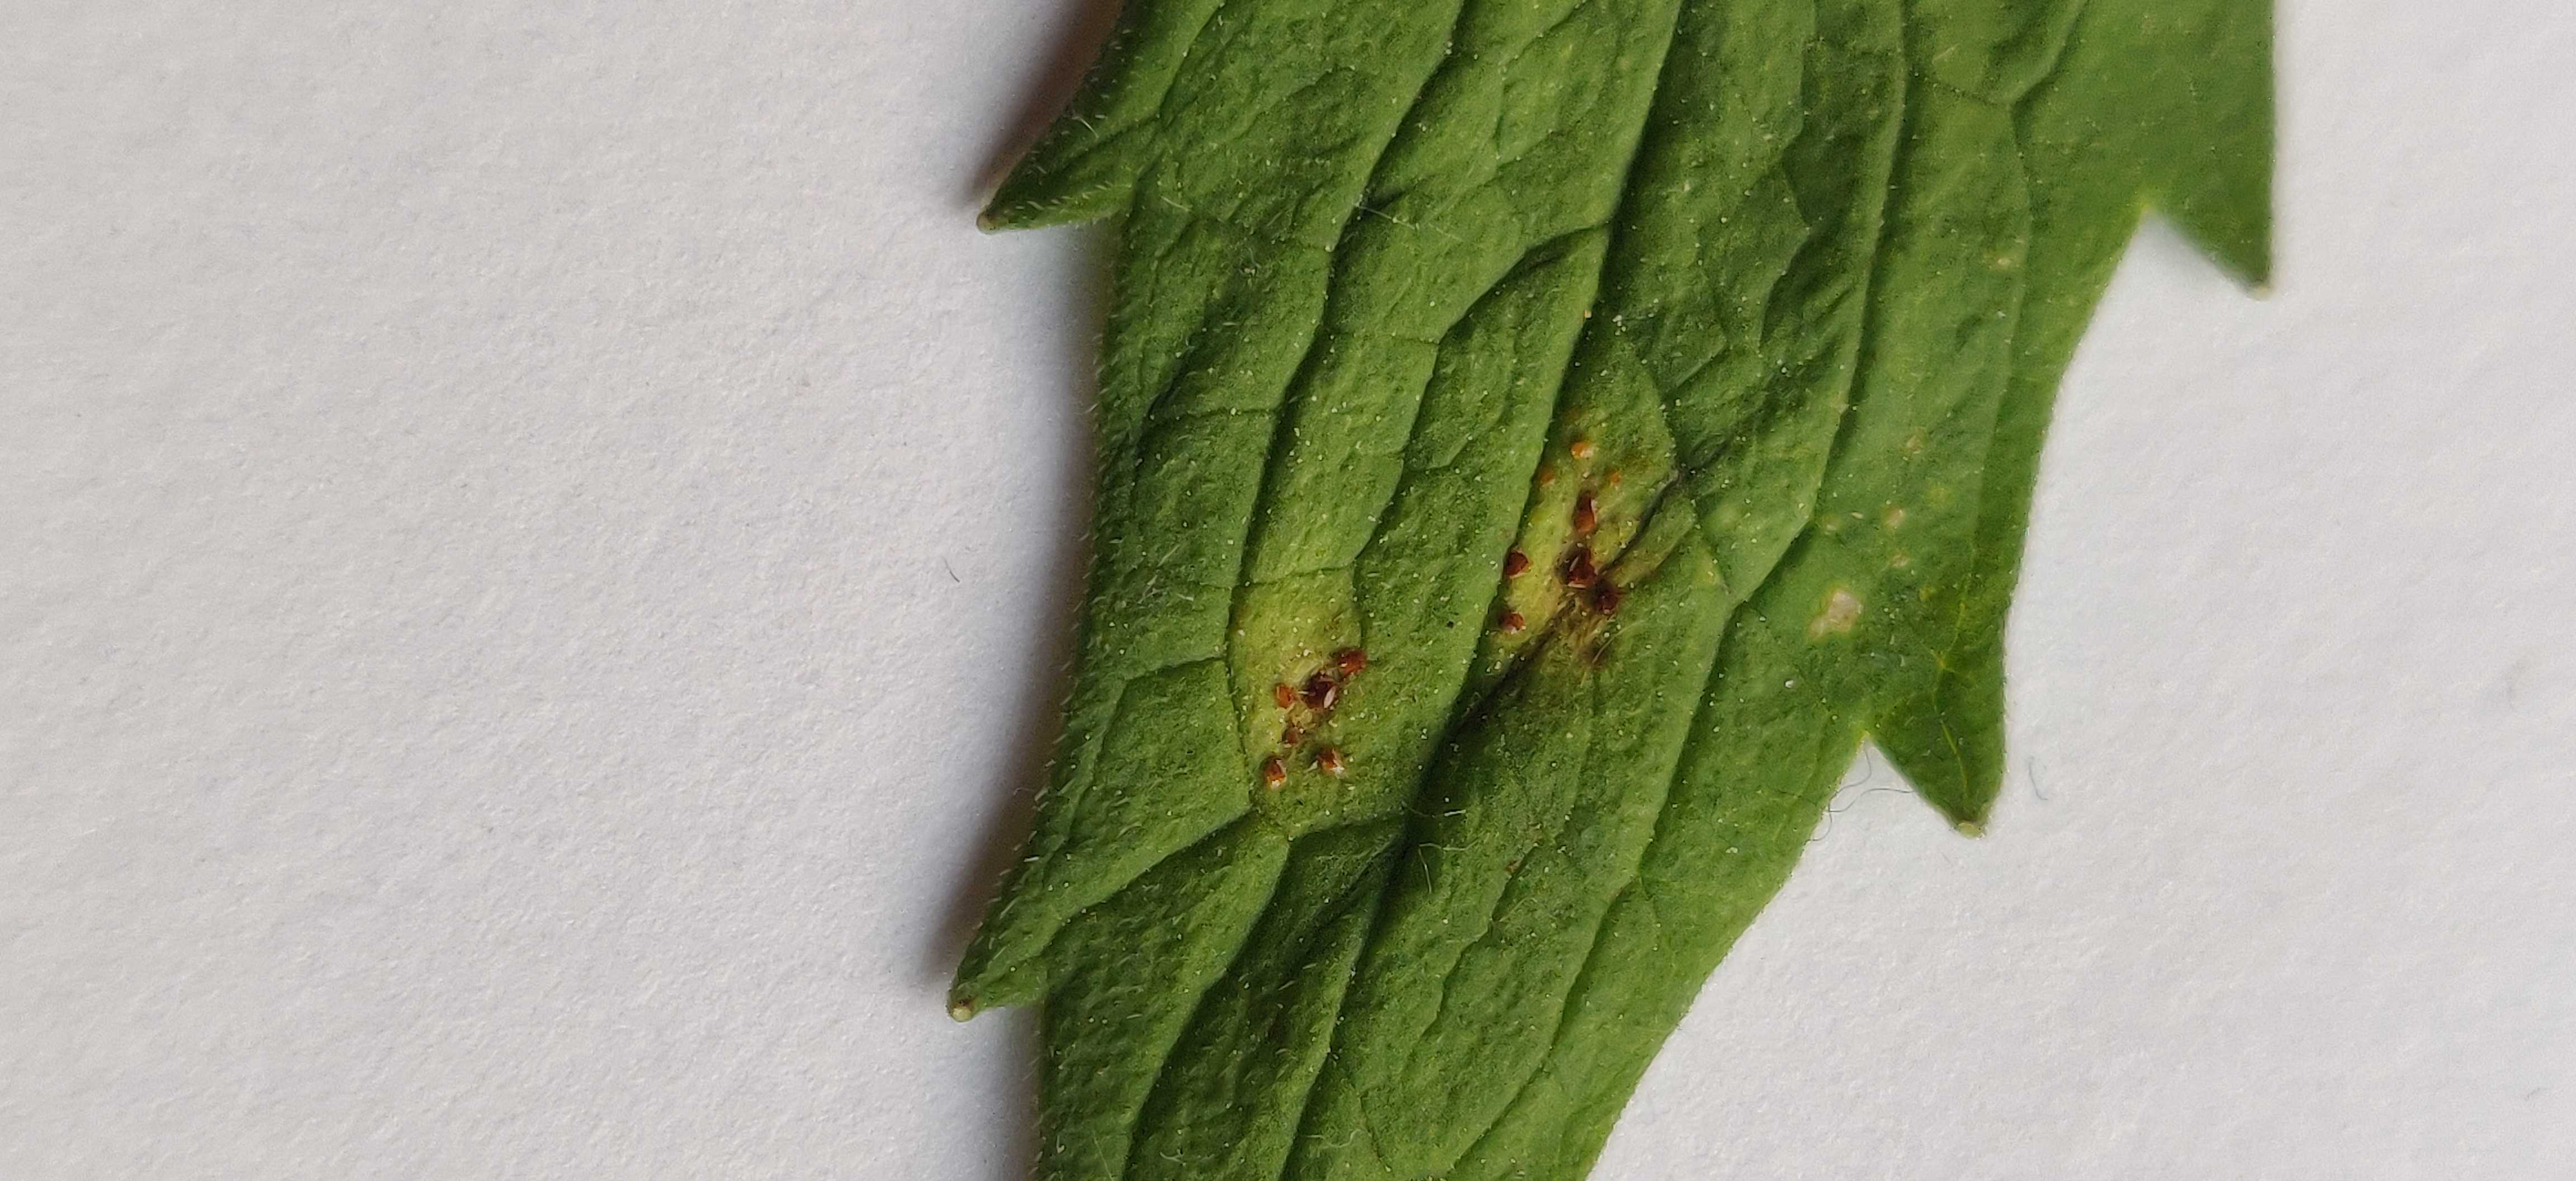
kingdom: Fungi
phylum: Basidiomycota
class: Pucciniomycetes
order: Pucciniales
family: Pucciniaceae
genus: Uromyces
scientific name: Uromyces valerianae
